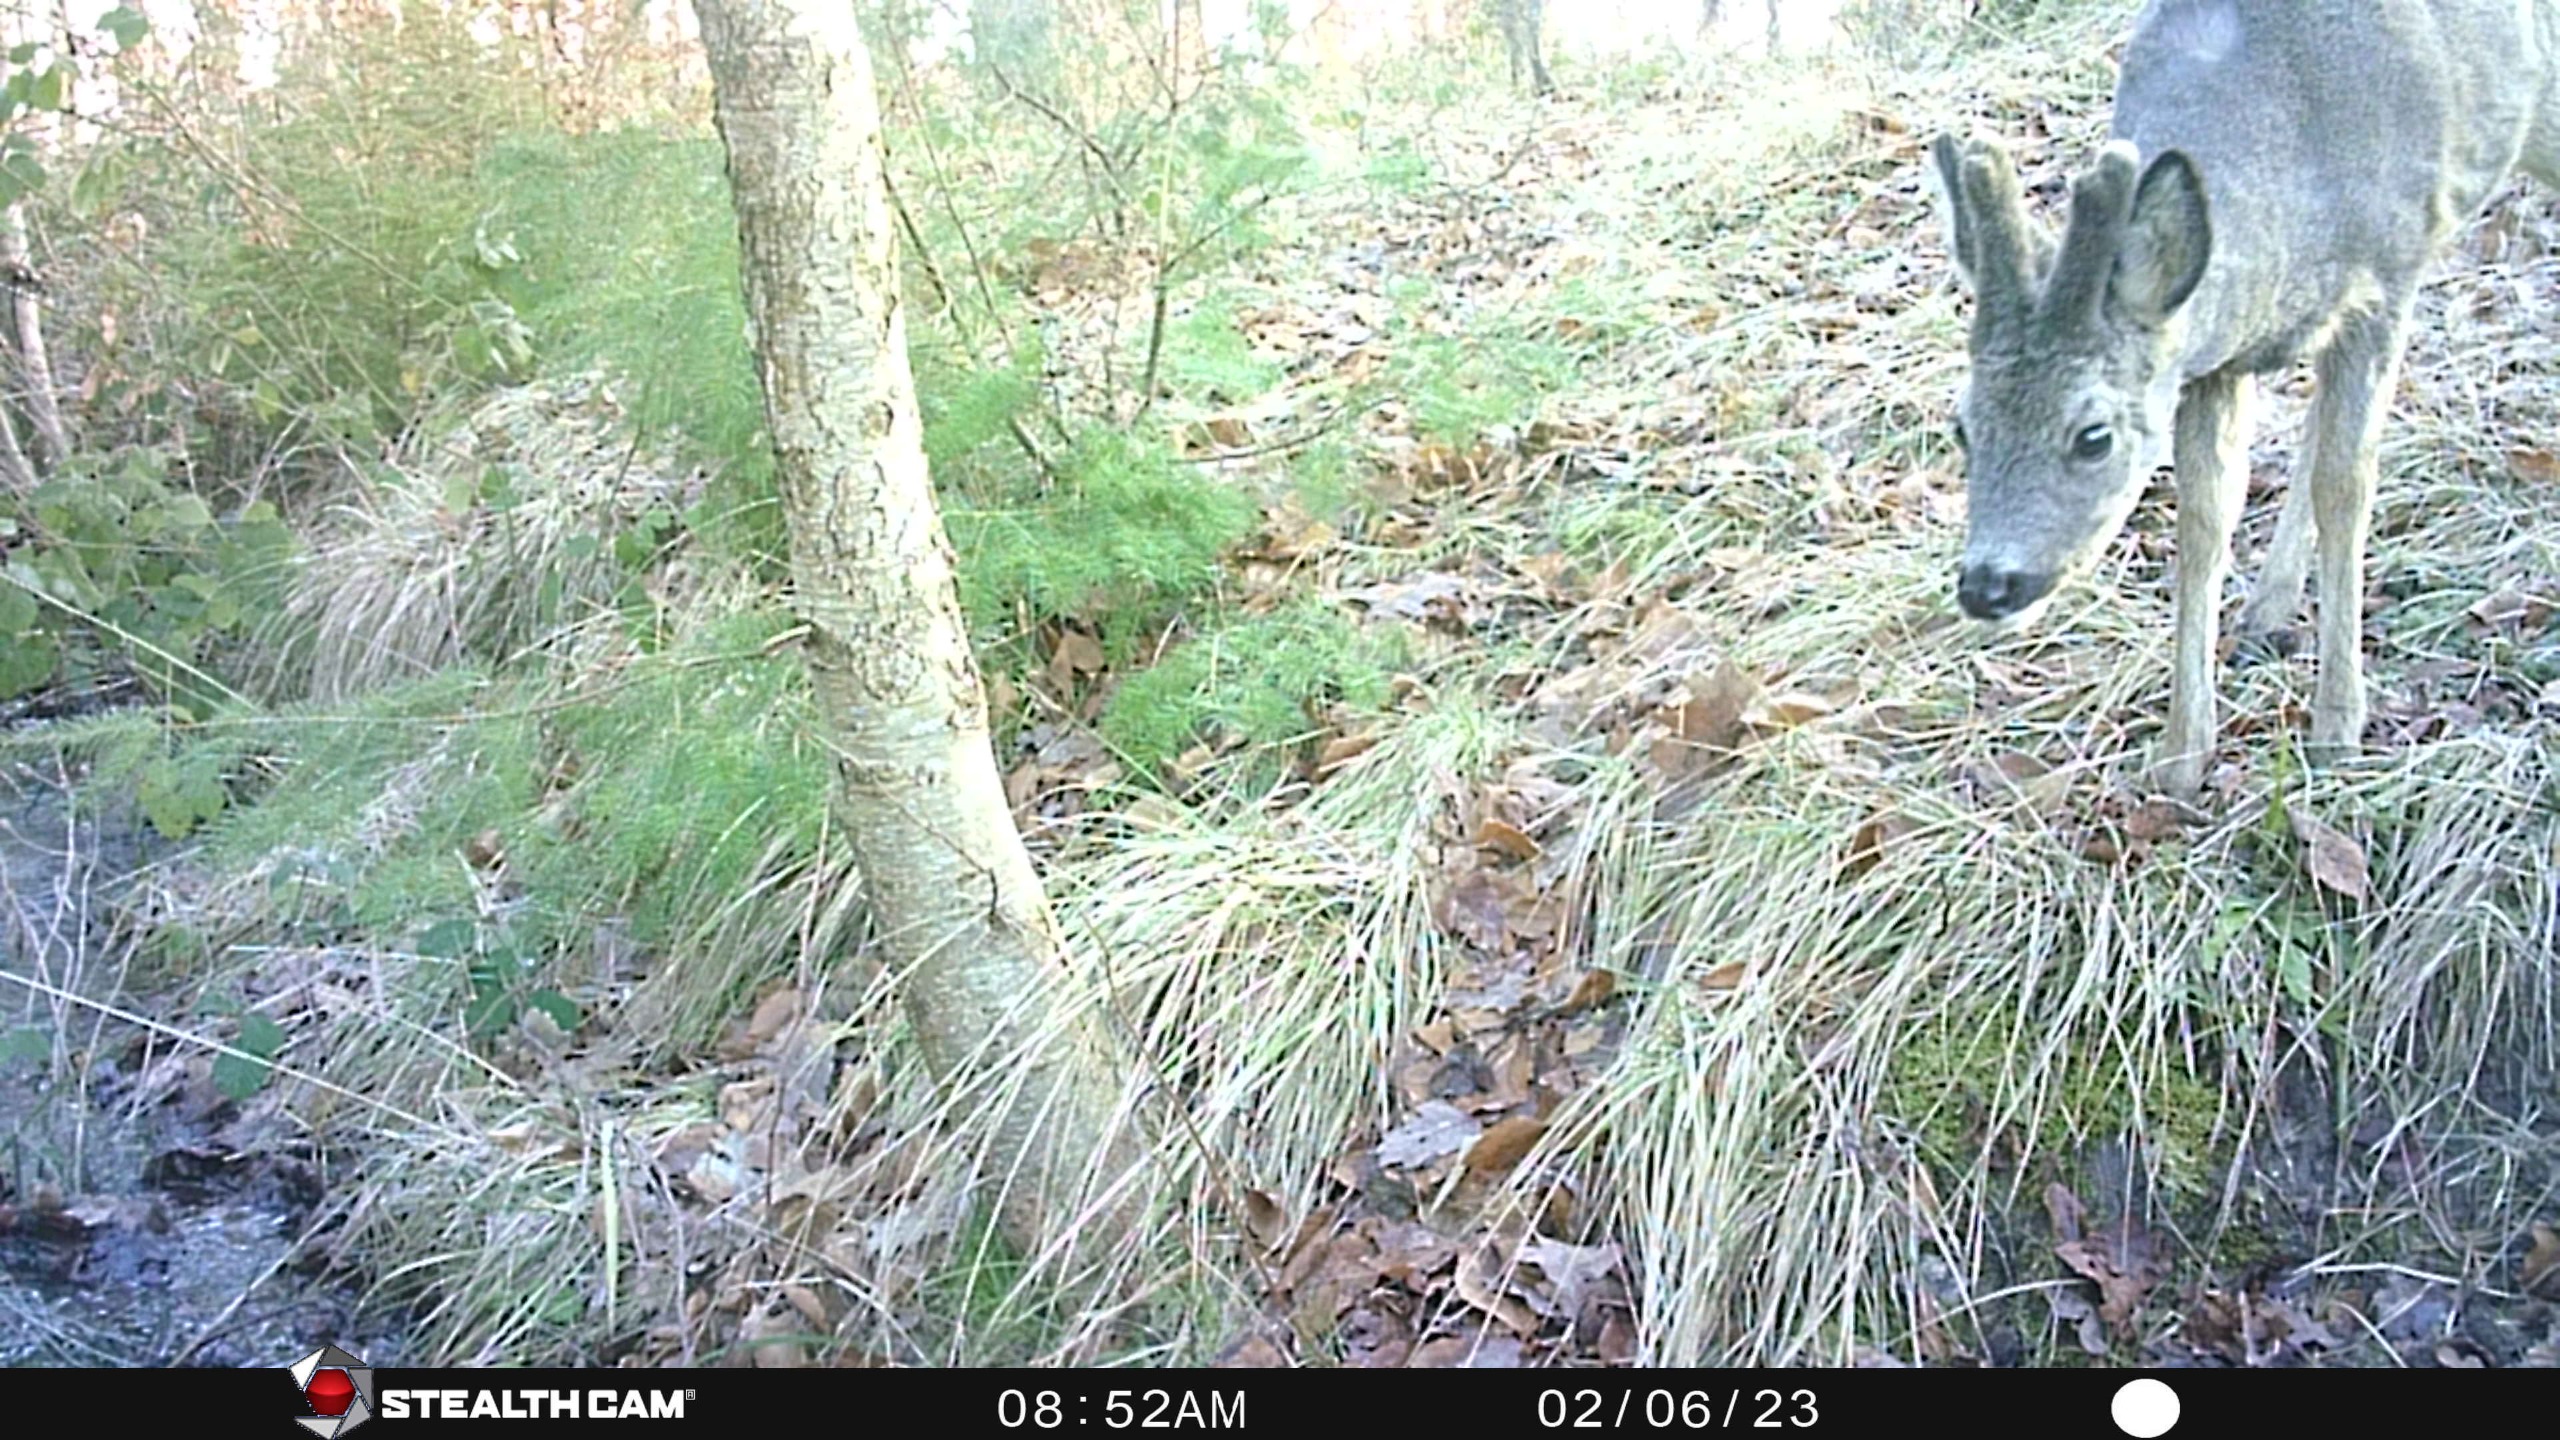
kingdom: Animalia
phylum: Chordata
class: Mammalia
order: Artiodactyla
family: Cervidae
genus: Capreolus
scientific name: Capreolus capreolus
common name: Rådyr
